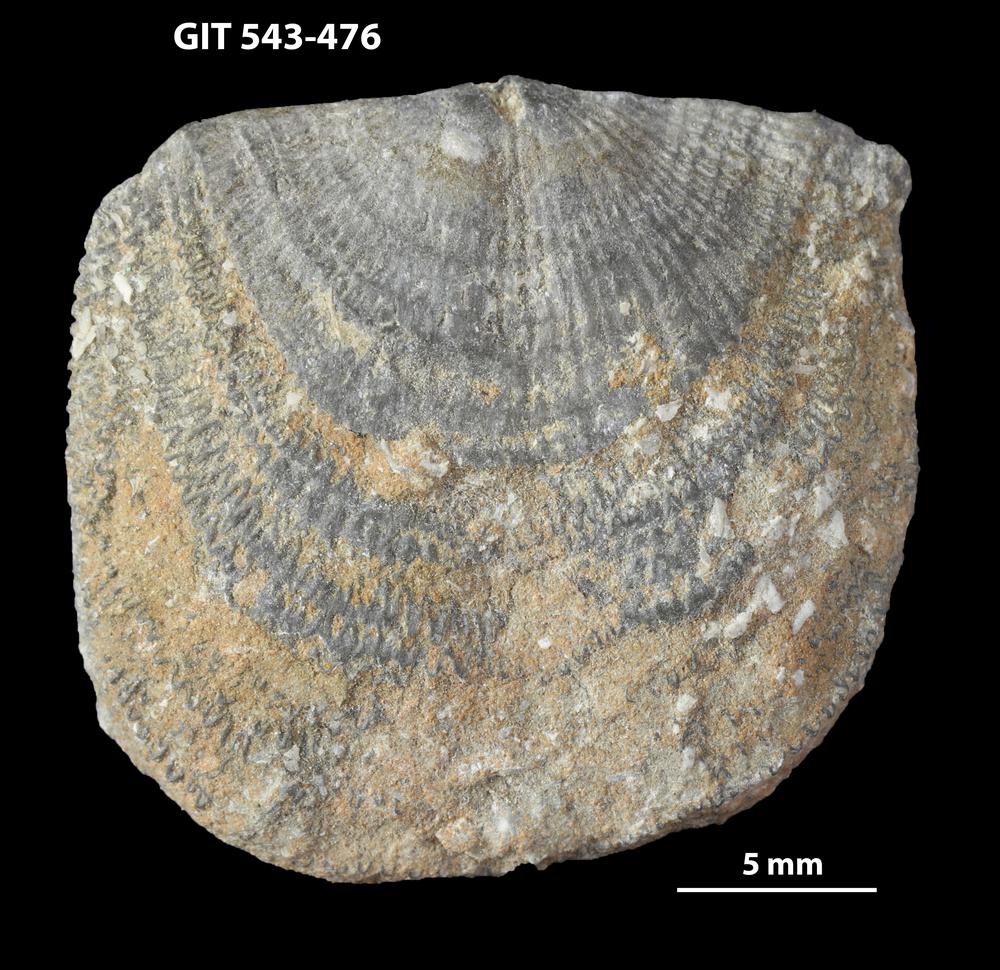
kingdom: Animalia
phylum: Brachiopoda
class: Rhynchonellata
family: Clitambonitidae
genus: Clitambonites
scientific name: Clitambonites squamatus
